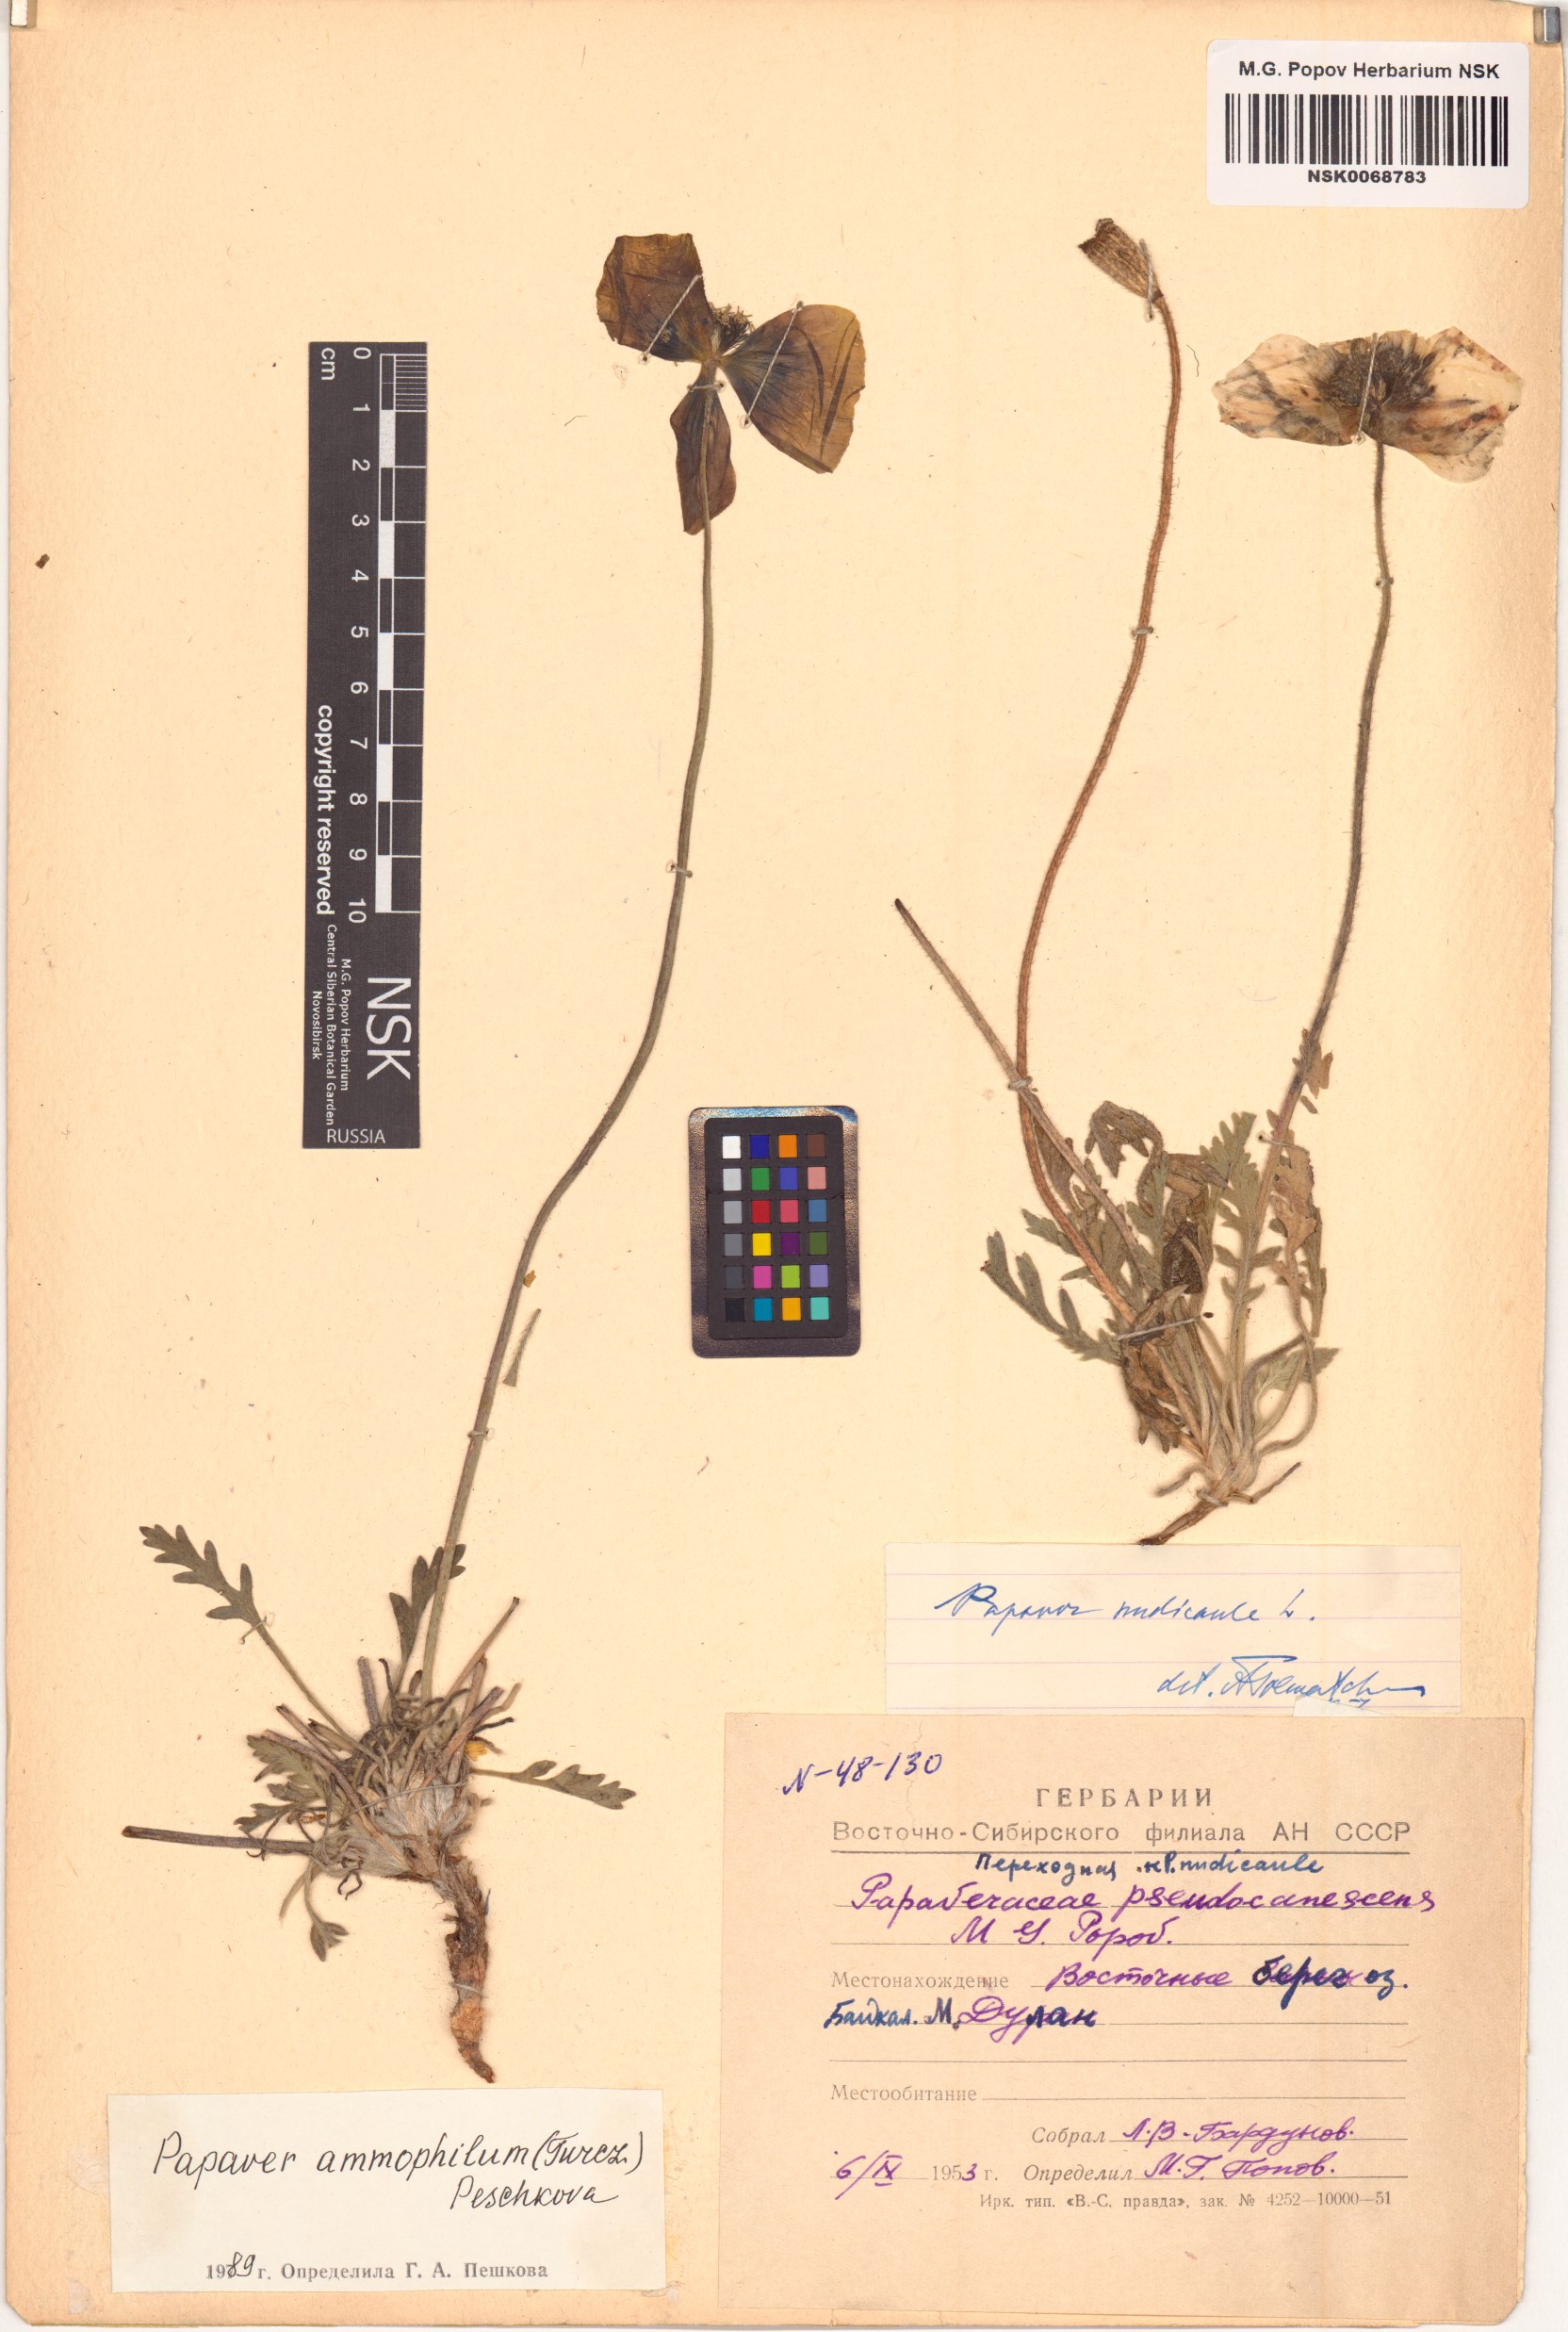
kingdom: Plantae
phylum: Tracheophyta
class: Magnoliopsida
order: Ranunculales
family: Papaveraceae
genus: Papaver
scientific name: Papaver nudicaule
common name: Arctic poppy
